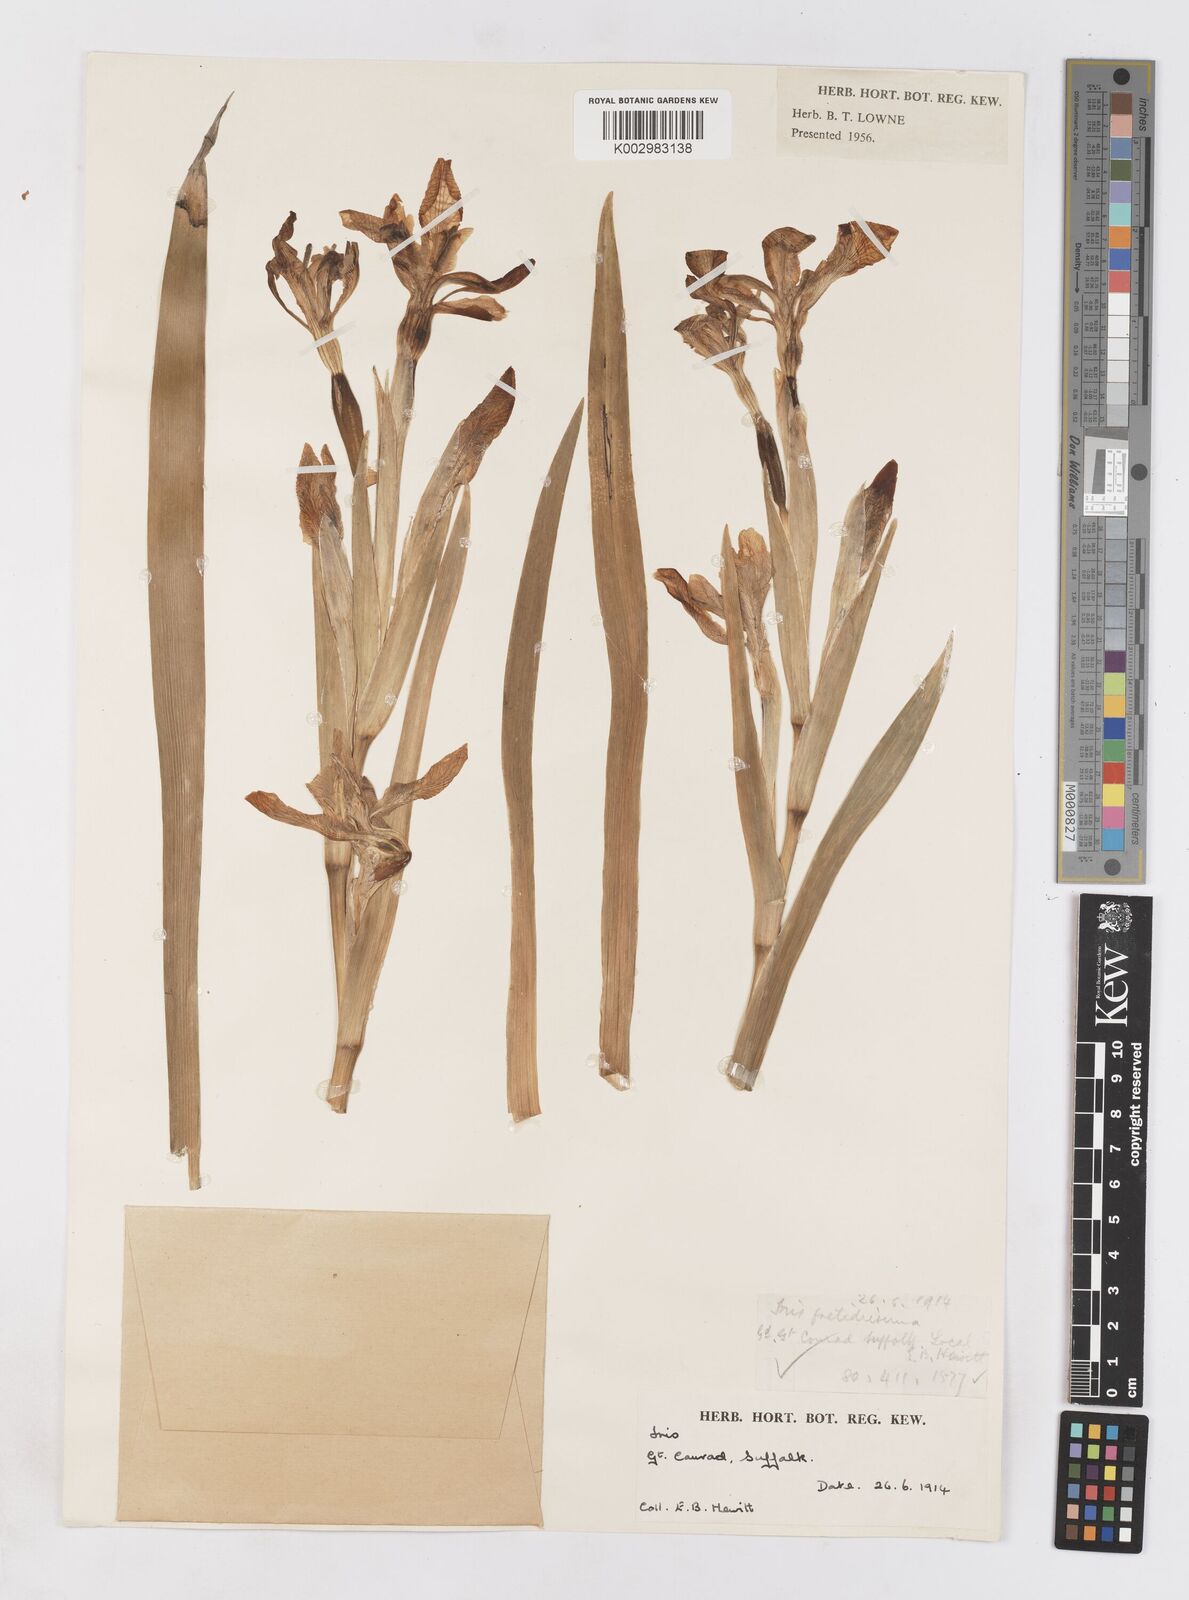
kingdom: Plantae
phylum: Tracheophyta
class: Liliopsida
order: Asparagales
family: Iridaceae
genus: Iris
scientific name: Iris foetidissima
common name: Stinking iris
